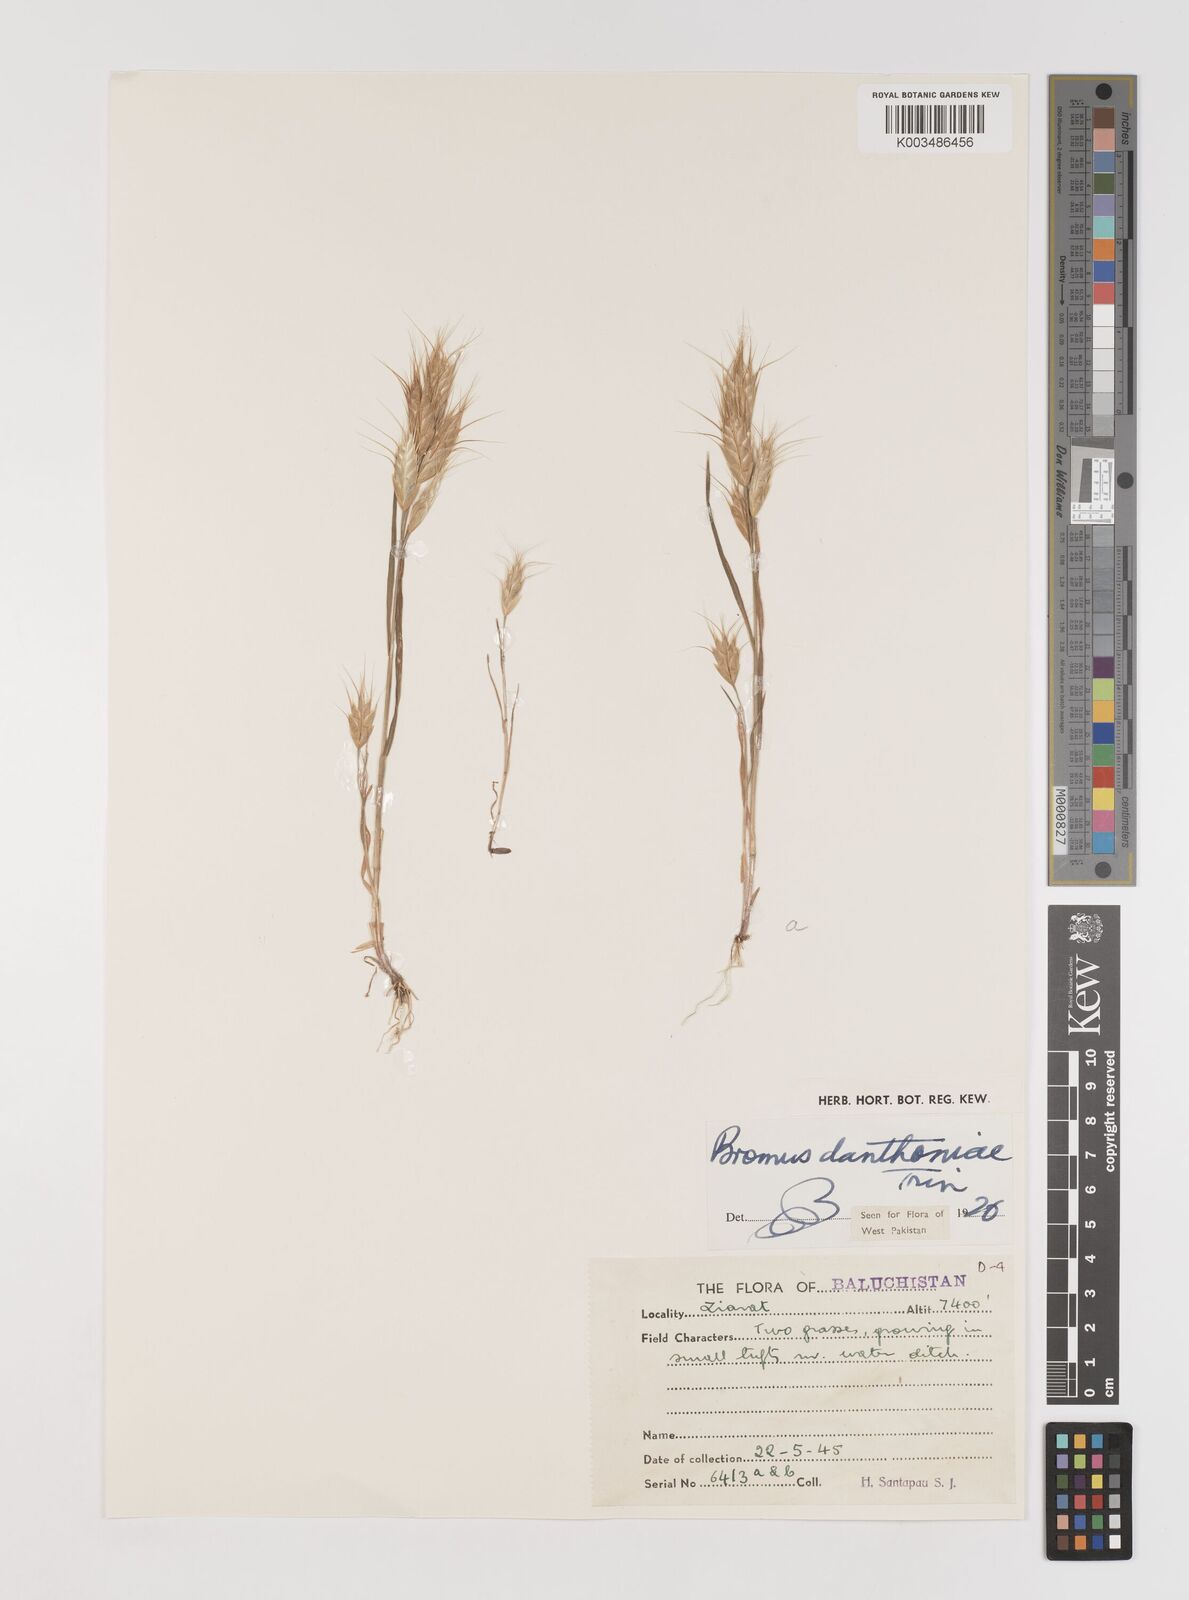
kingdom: Plantae
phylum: Tracheophyta
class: Liliopsida
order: Poales
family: Poaceae
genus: Bromus
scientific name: Bromus danthoniae
